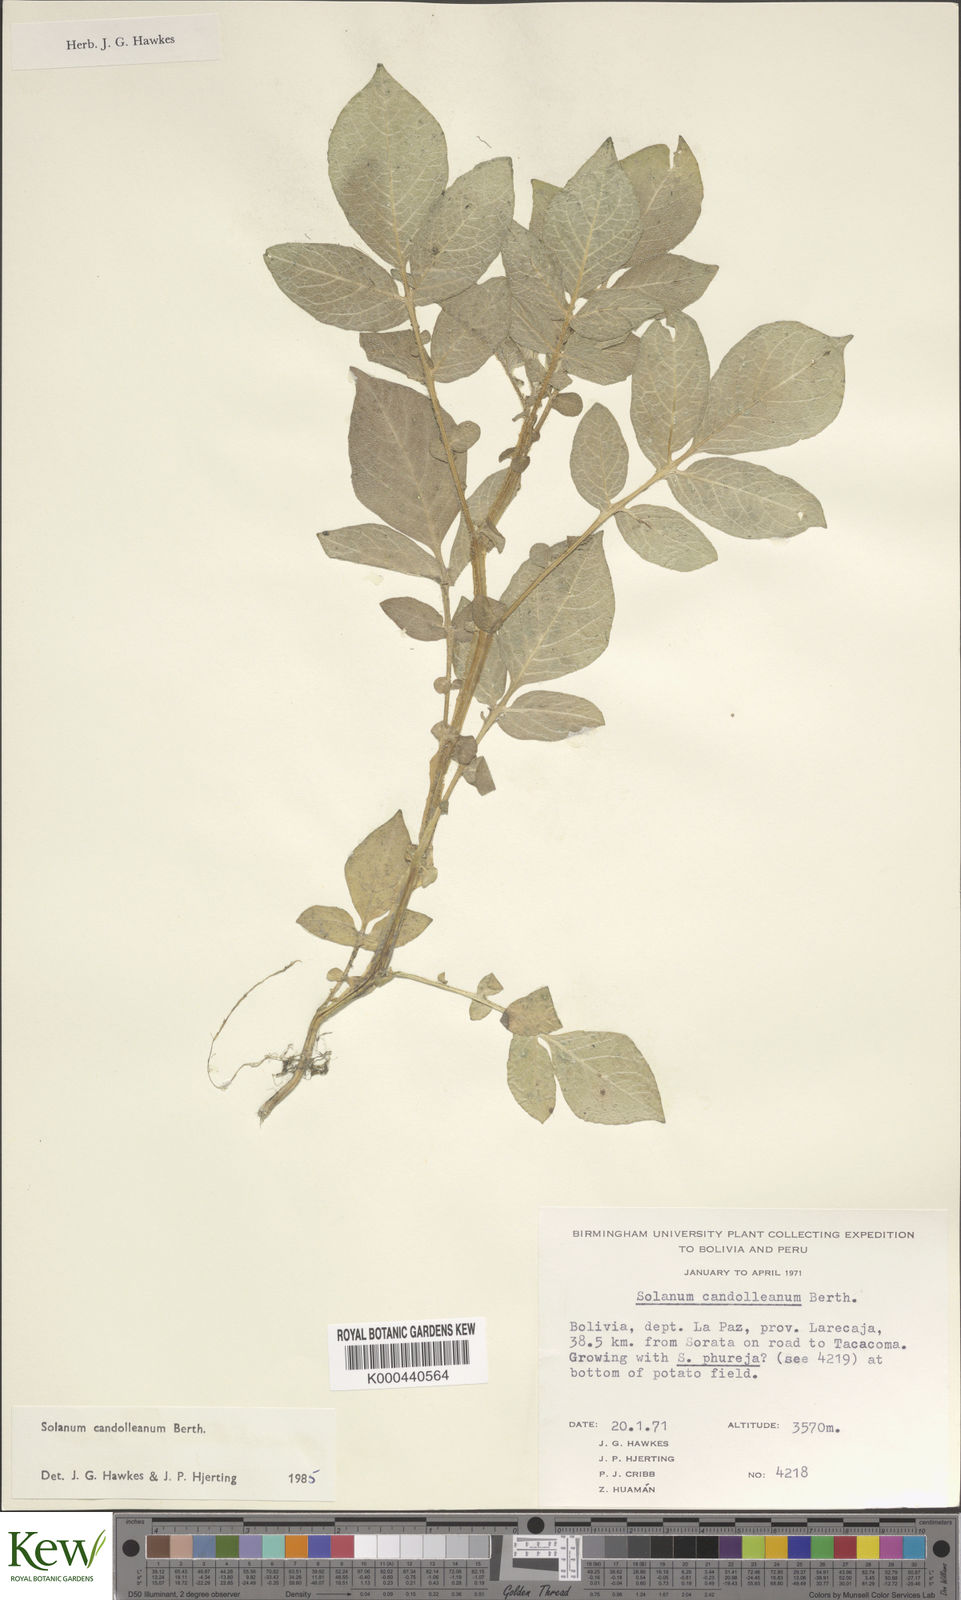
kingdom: Plantae
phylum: Tracheophyta
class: Magnoliopsida
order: Solanales
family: Solanaceae
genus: Solanum
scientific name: Solanum brevicaule
